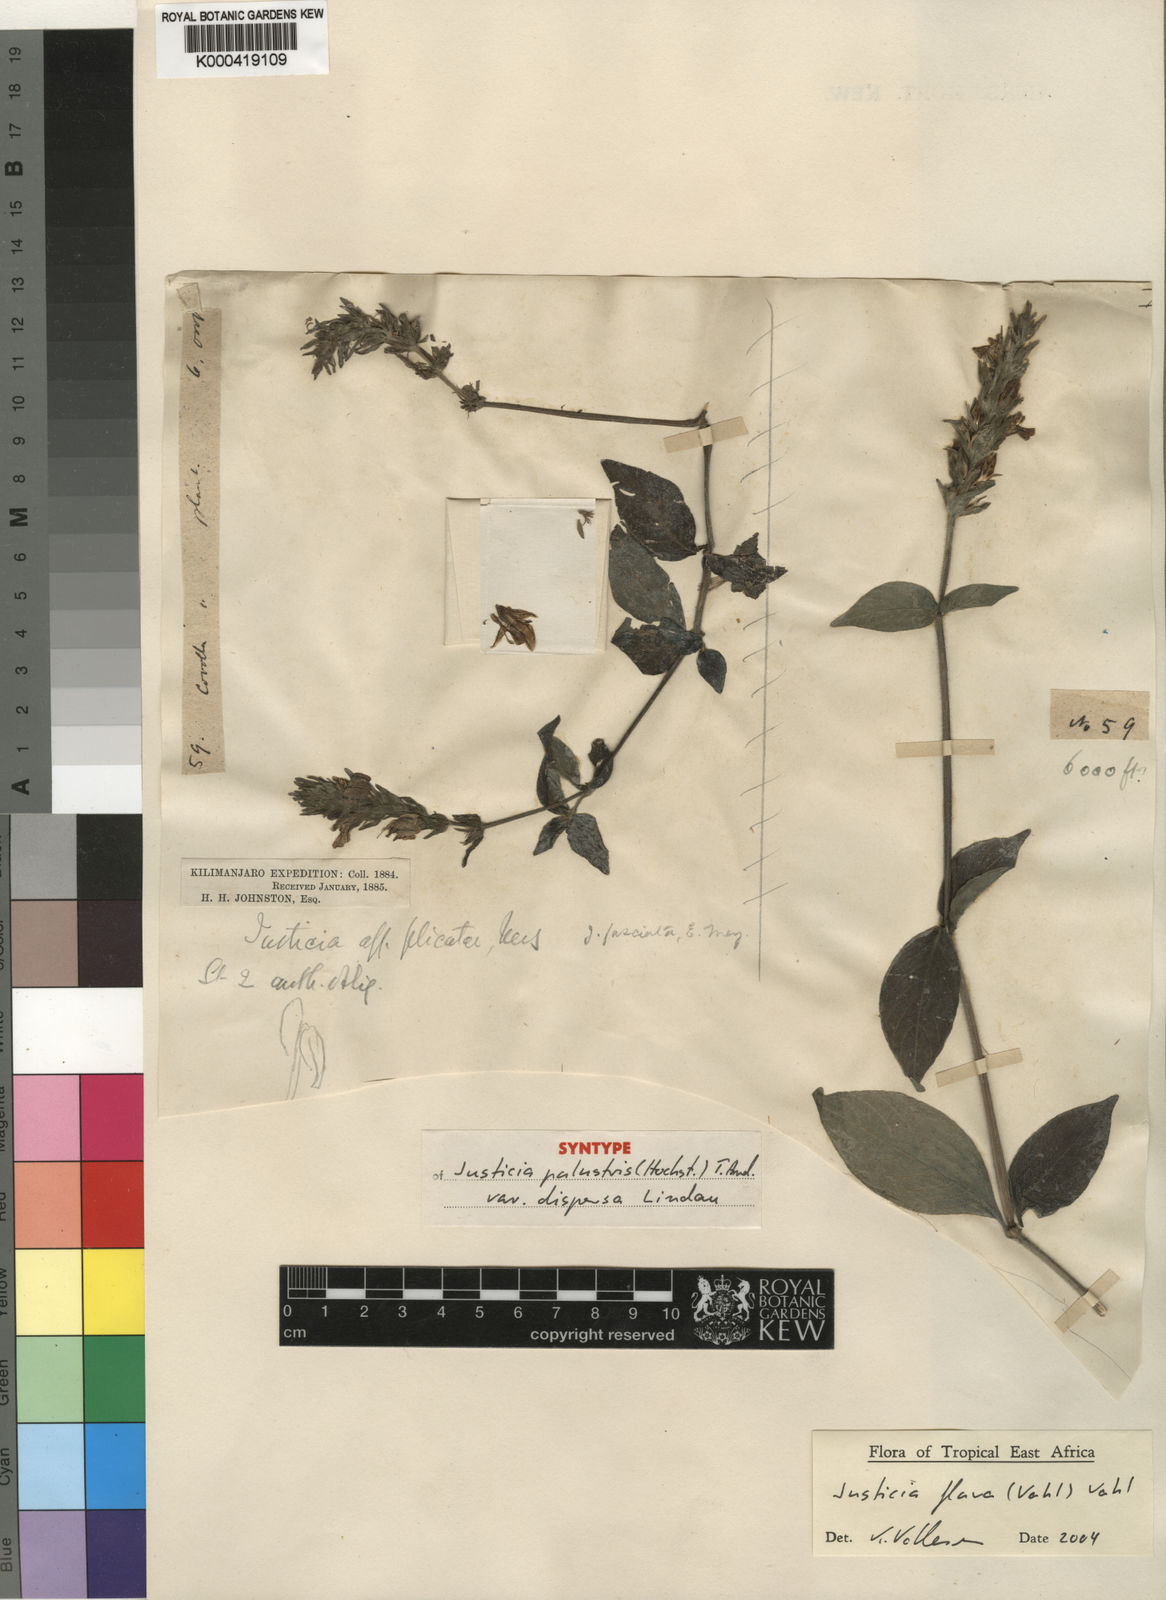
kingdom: Plantae
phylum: Tracheophyta
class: Magnoliopsida
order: Lamiales
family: Acanthaceae
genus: Justicia
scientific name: Justicia flava
